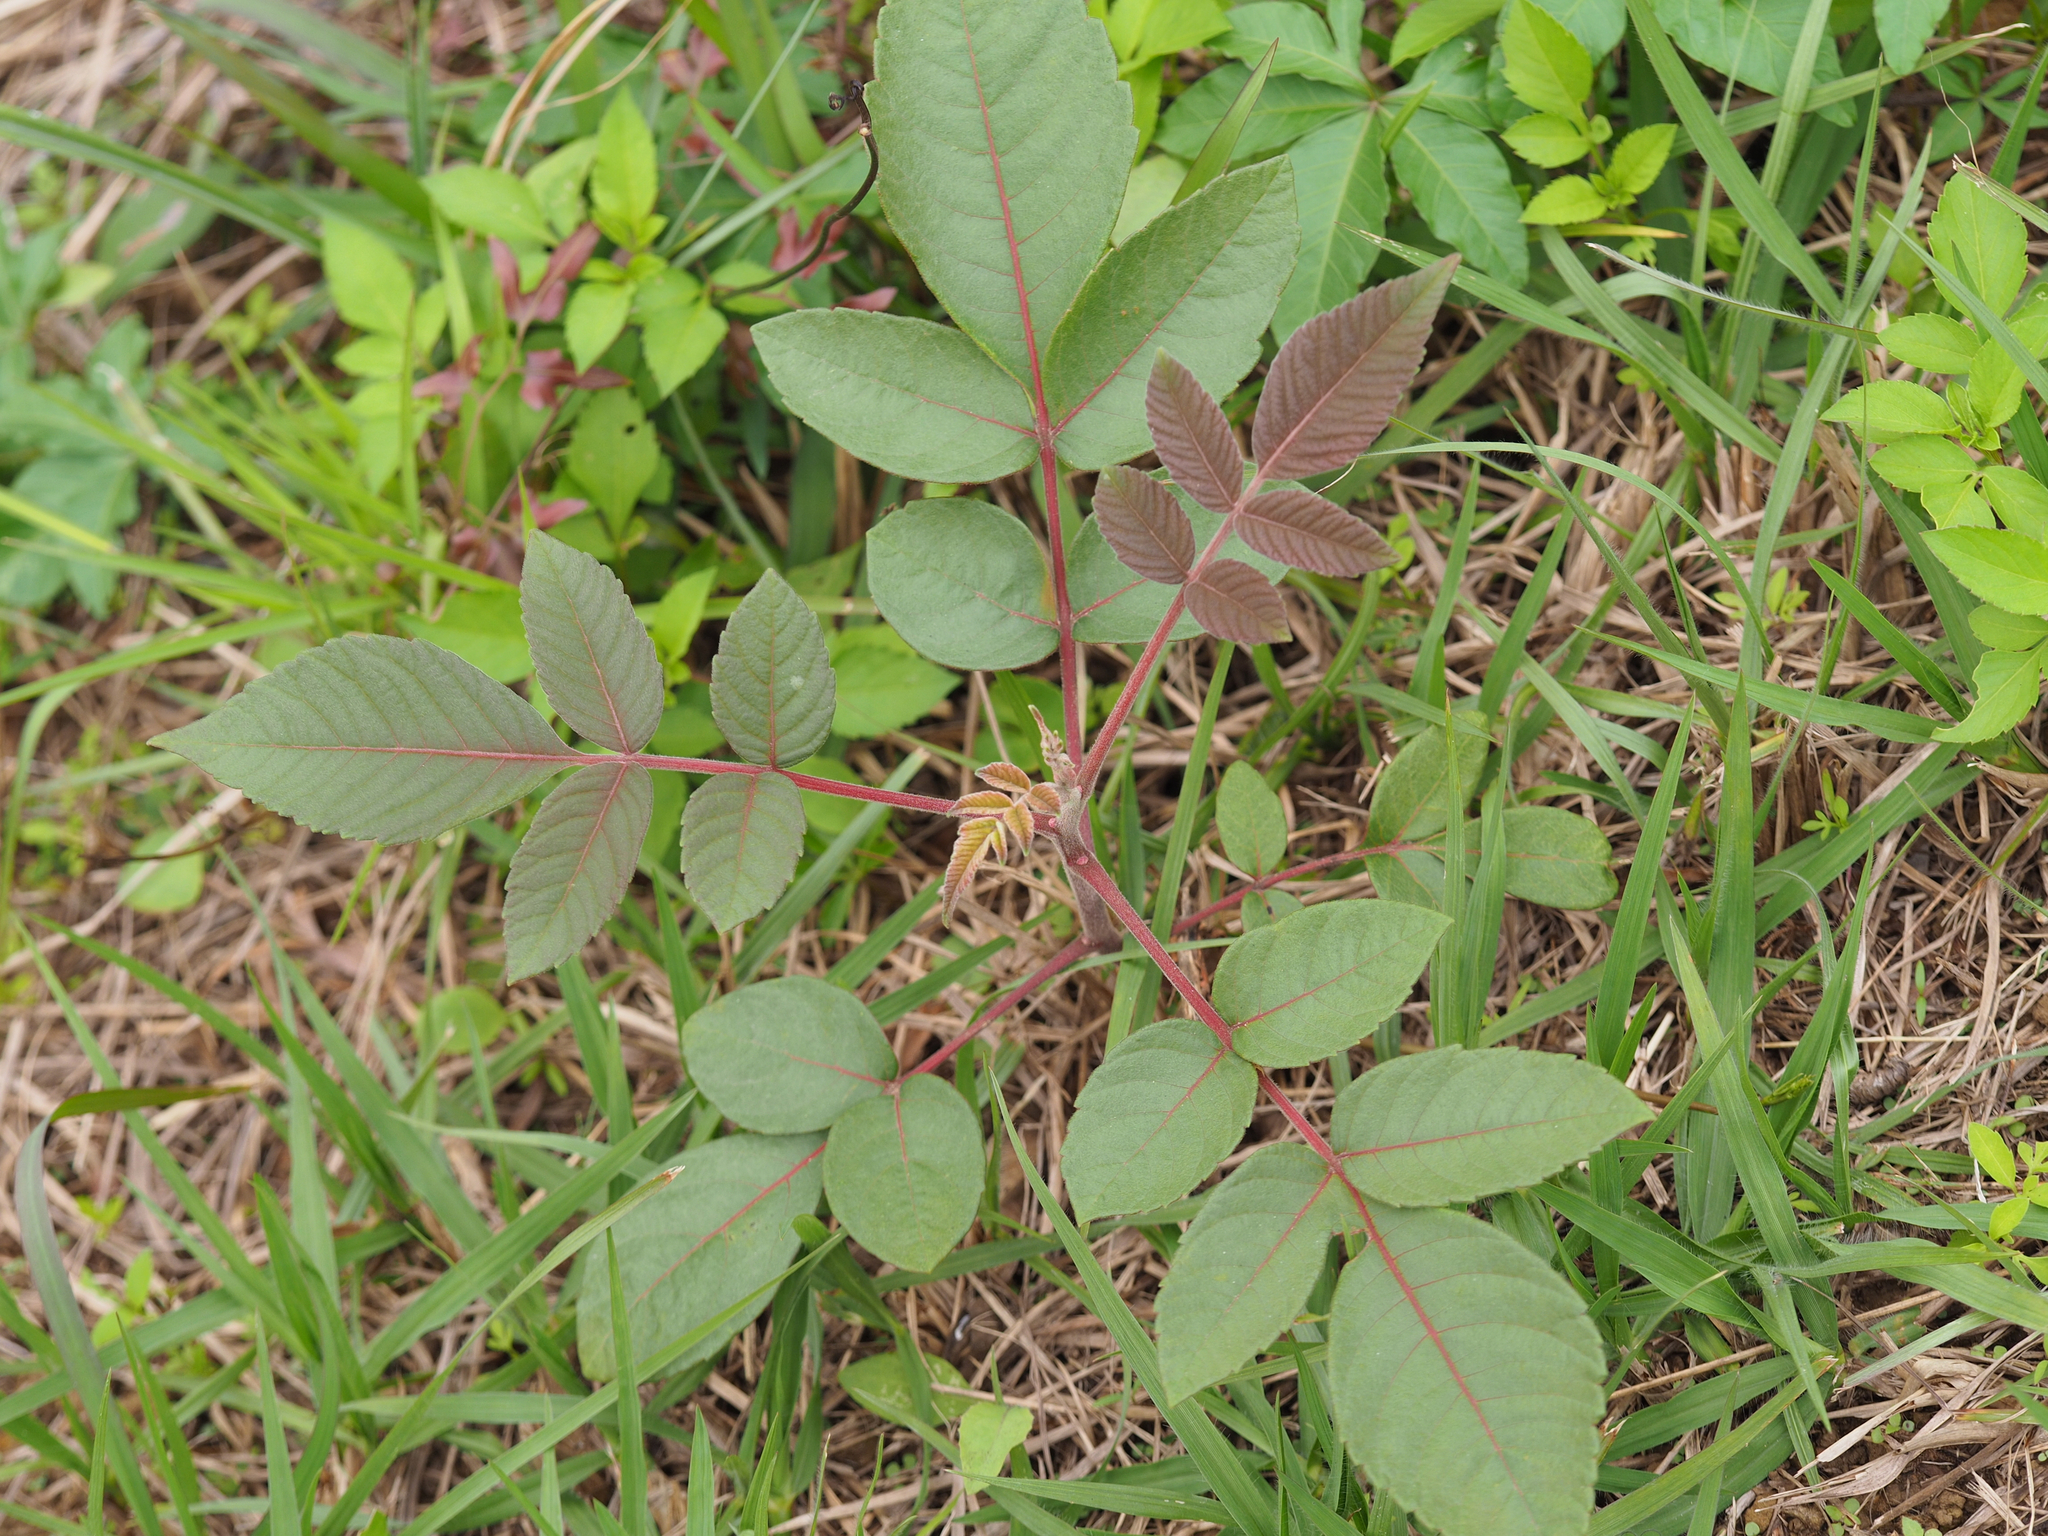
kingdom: Plantae
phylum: Tracheophyta
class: Magnoliopsida
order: Sapindales
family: Anacardiaceae
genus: Rhus
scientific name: Rhus chinensis
